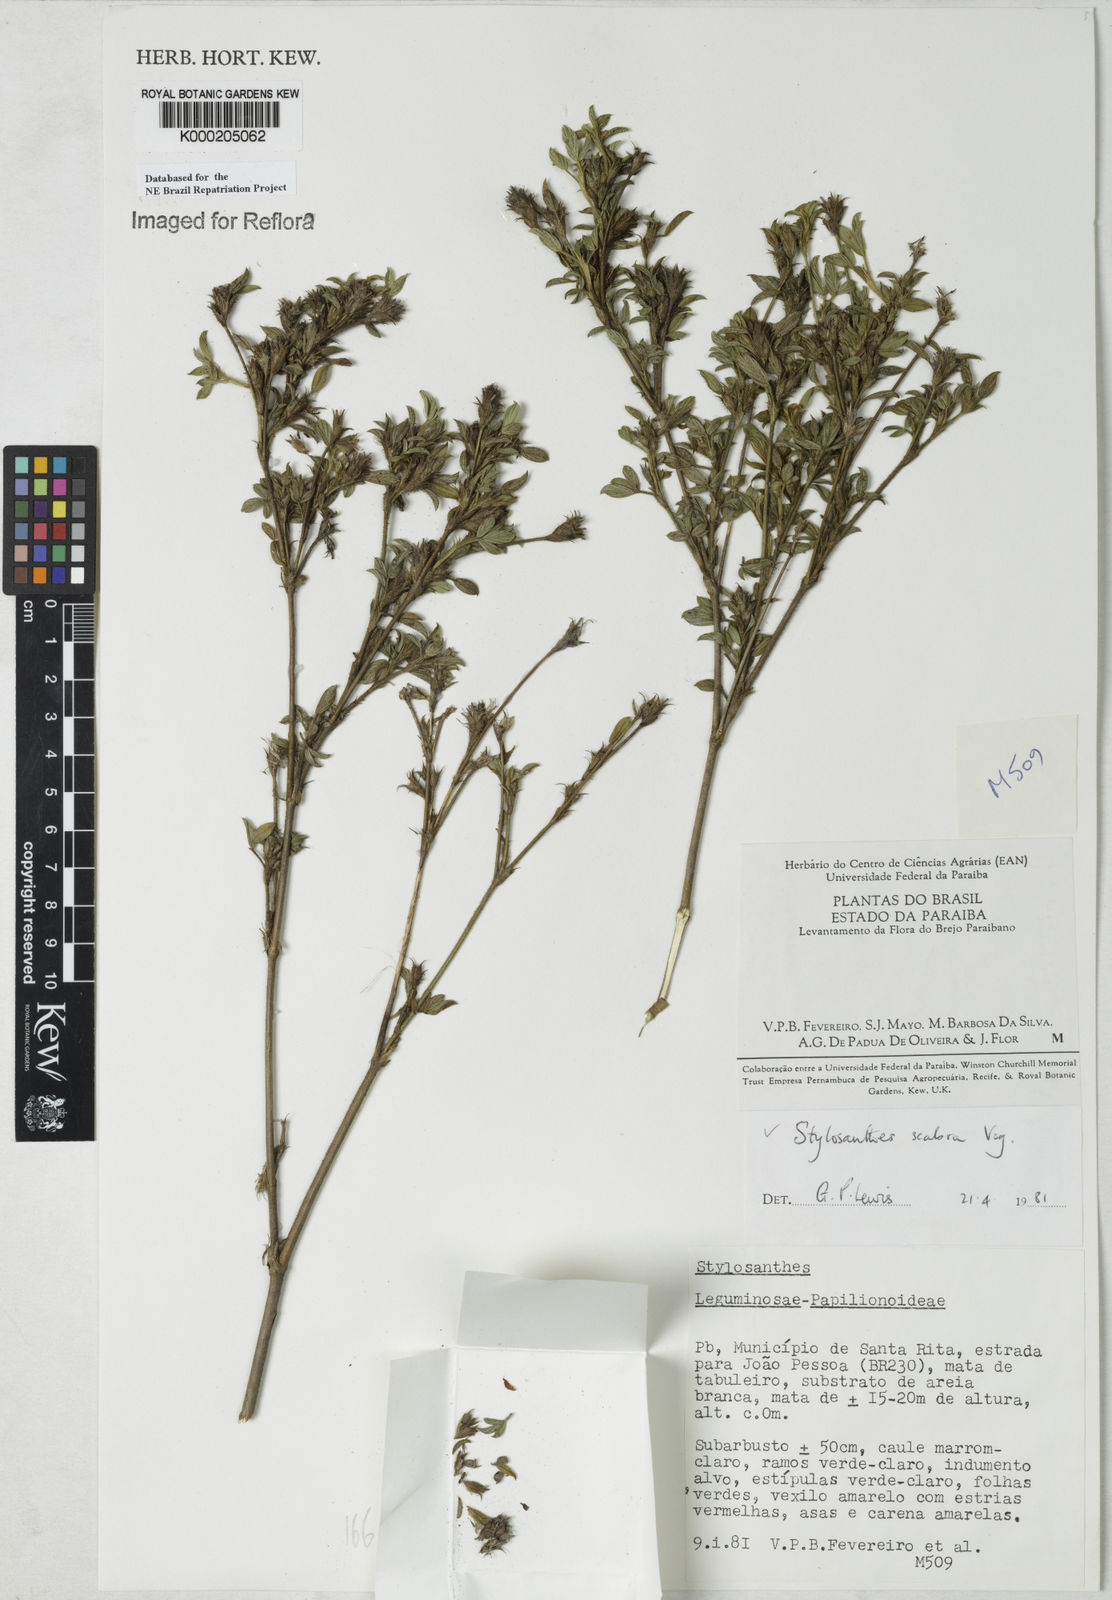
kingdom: Plantae
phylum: Tracheophyta
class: Magnoliopsida
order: Fabales
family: Fabaceae
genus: Stylosanthes
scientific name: Stylosanthes scabra
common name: Pencilflower
